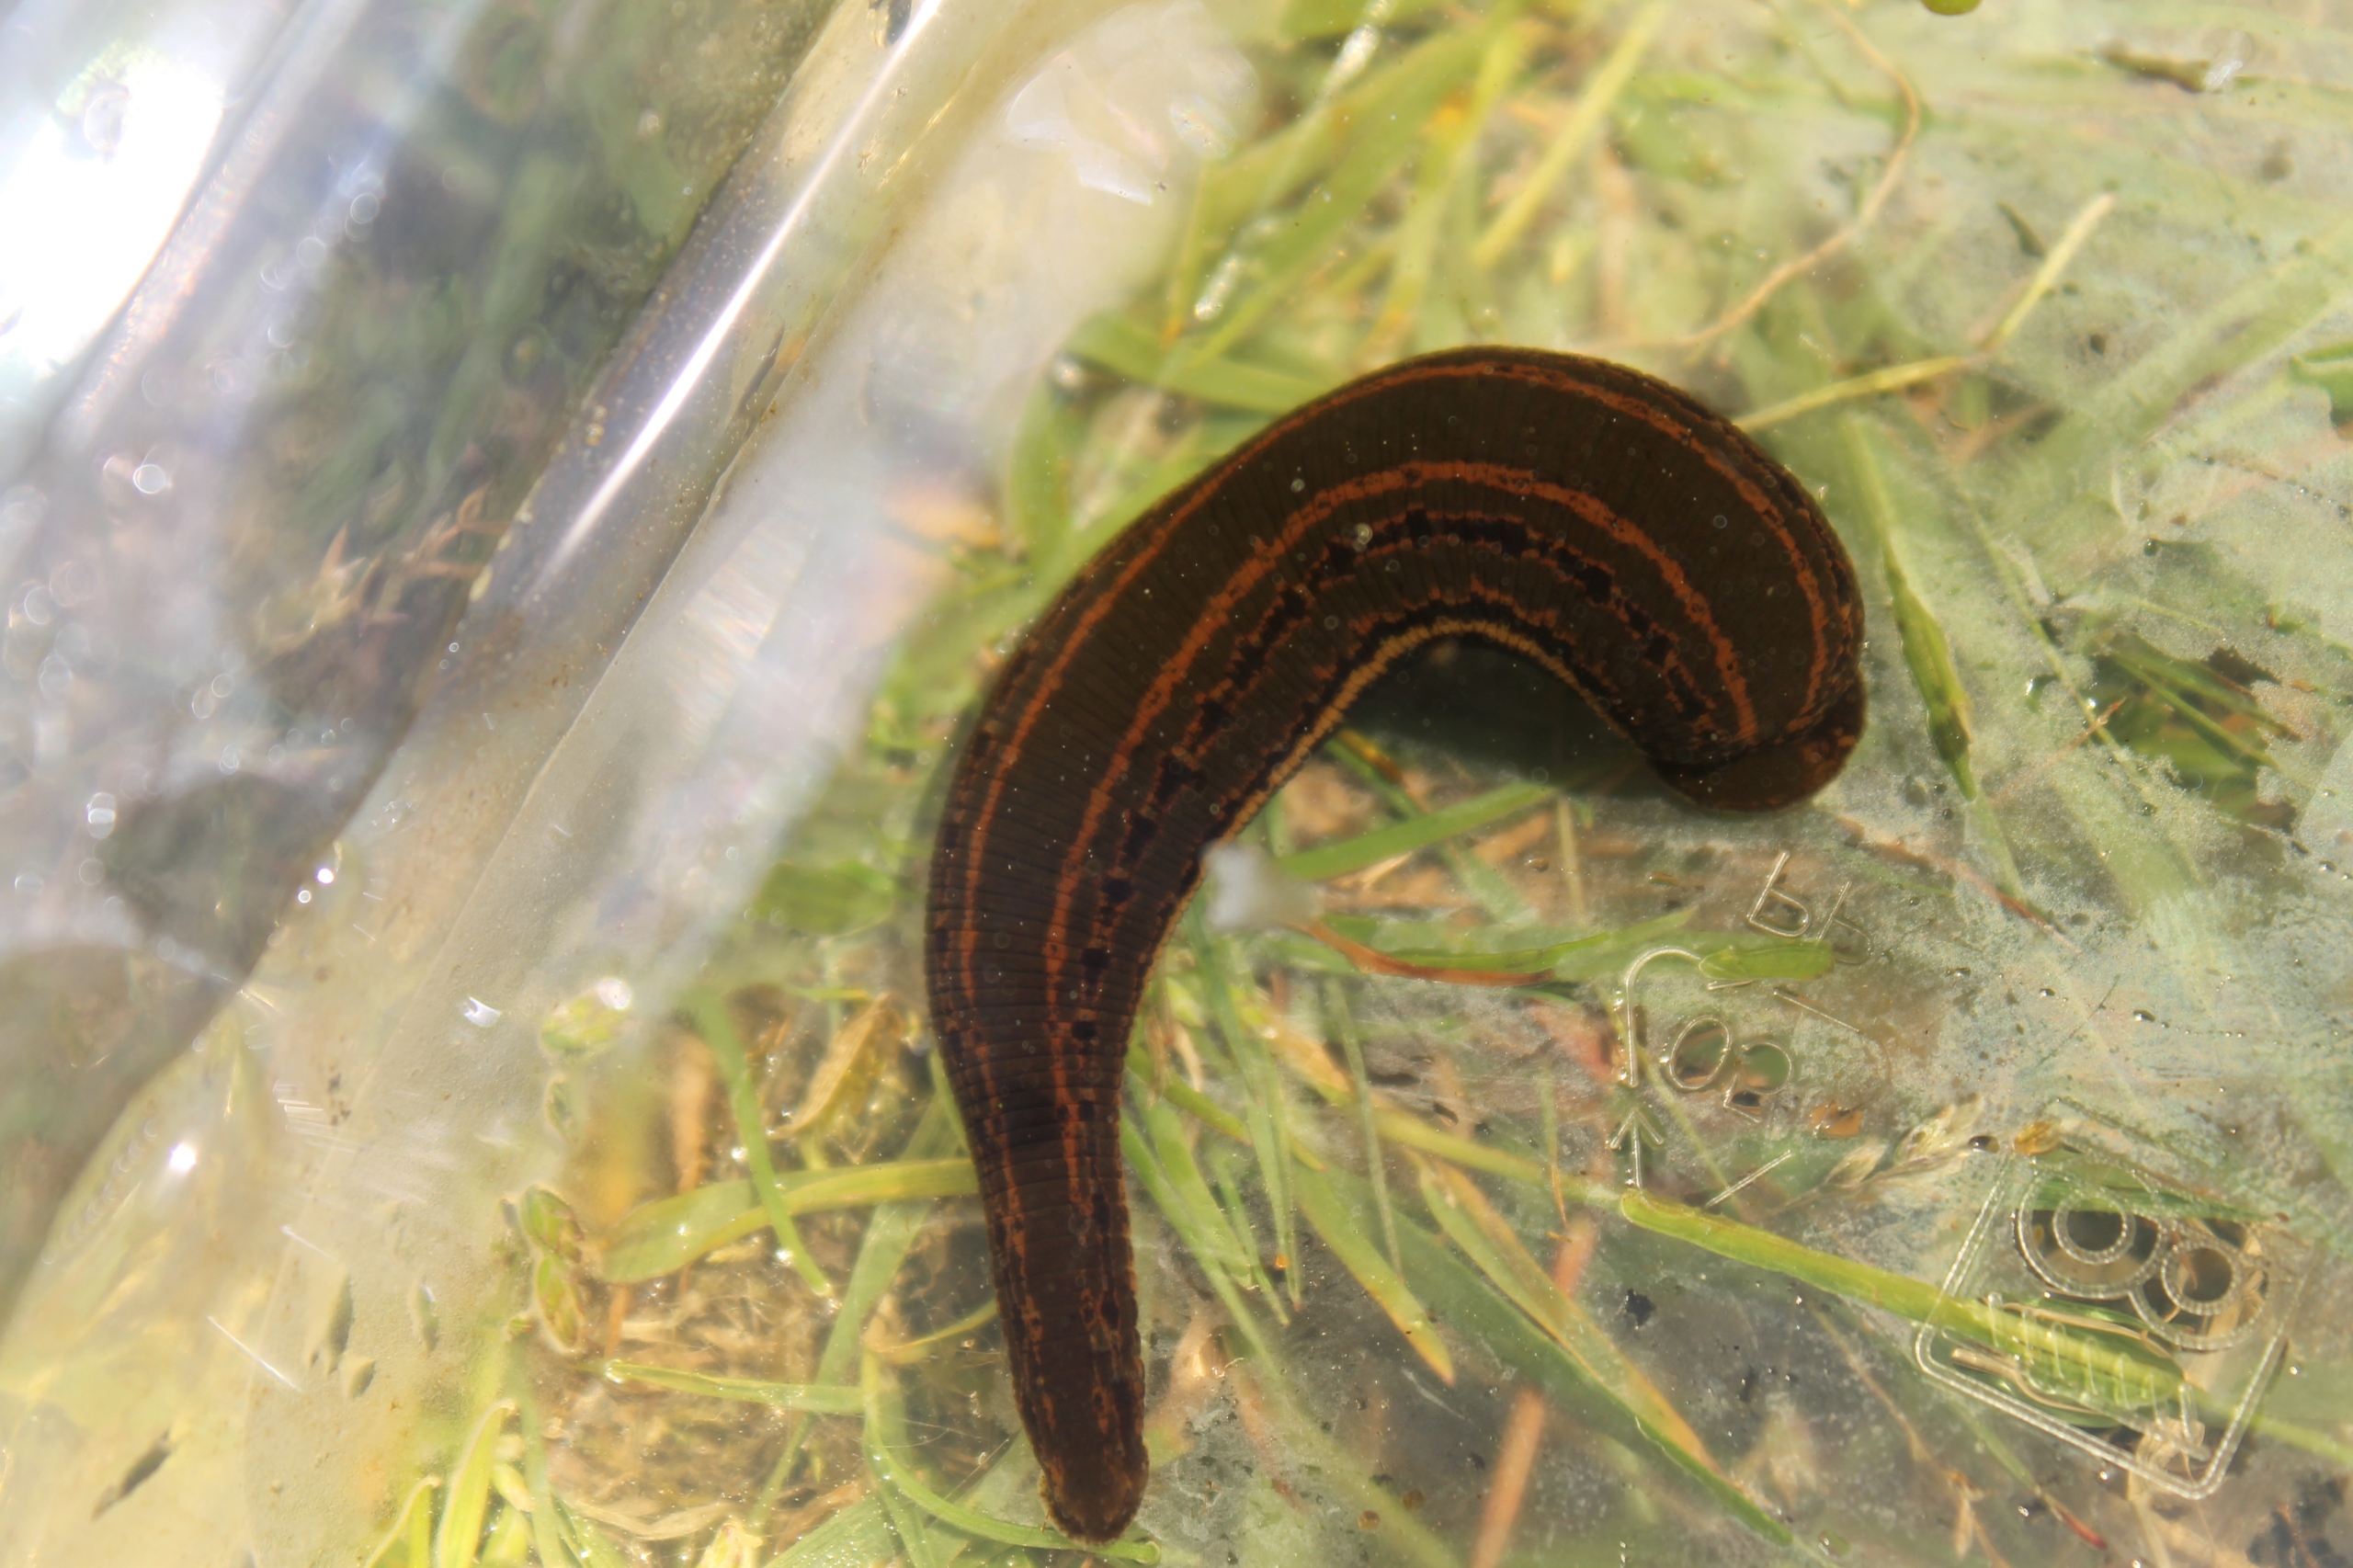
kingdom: Animalia
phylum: Annelida
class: Clitellata
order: Arhynchobdellida
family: Hirudinidae
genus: Hirudo
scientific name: Hirudo medicinalis
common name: Lægeigle
